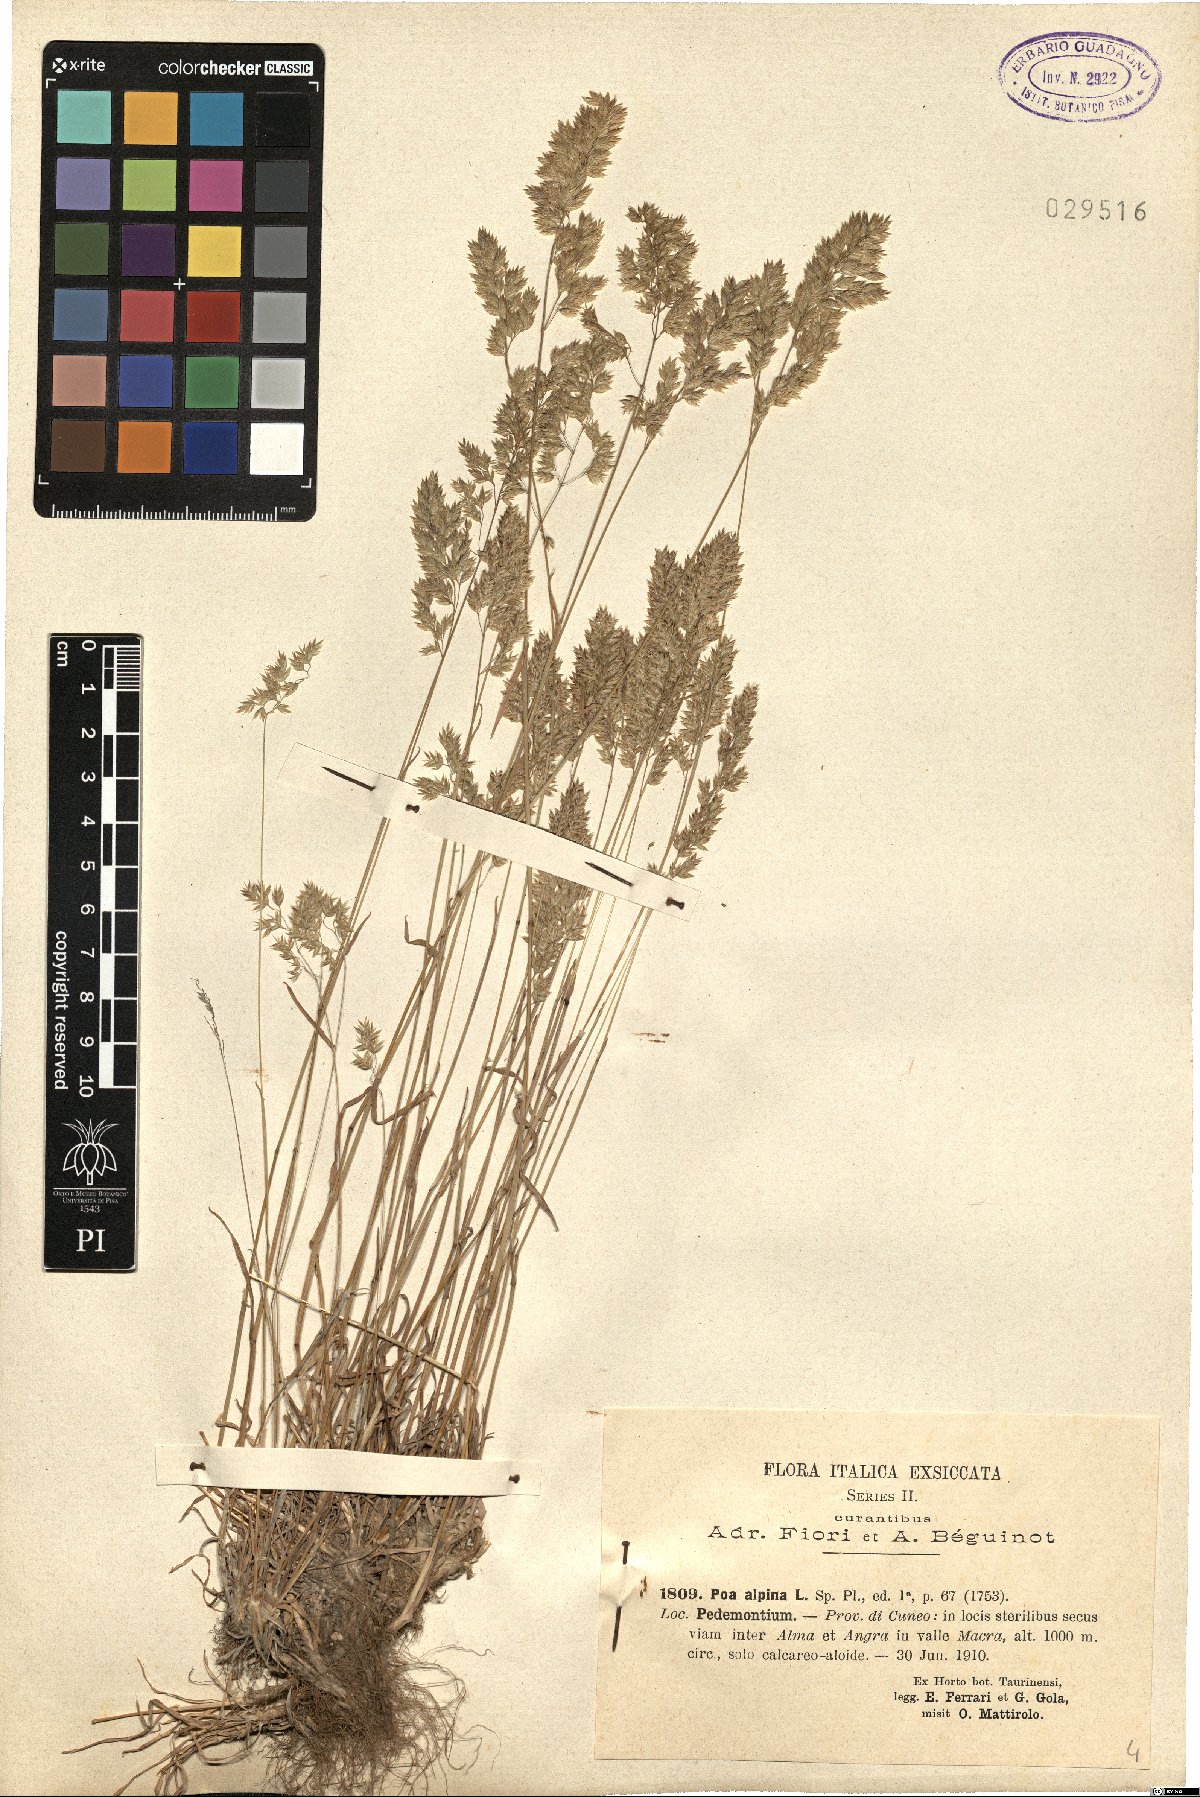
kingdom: Plantae
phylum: Tracheophyta
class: Liliopsida
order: Poales
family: Poaceae
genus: Poa
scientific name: Poa alpina
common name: Alpine bluegrass
